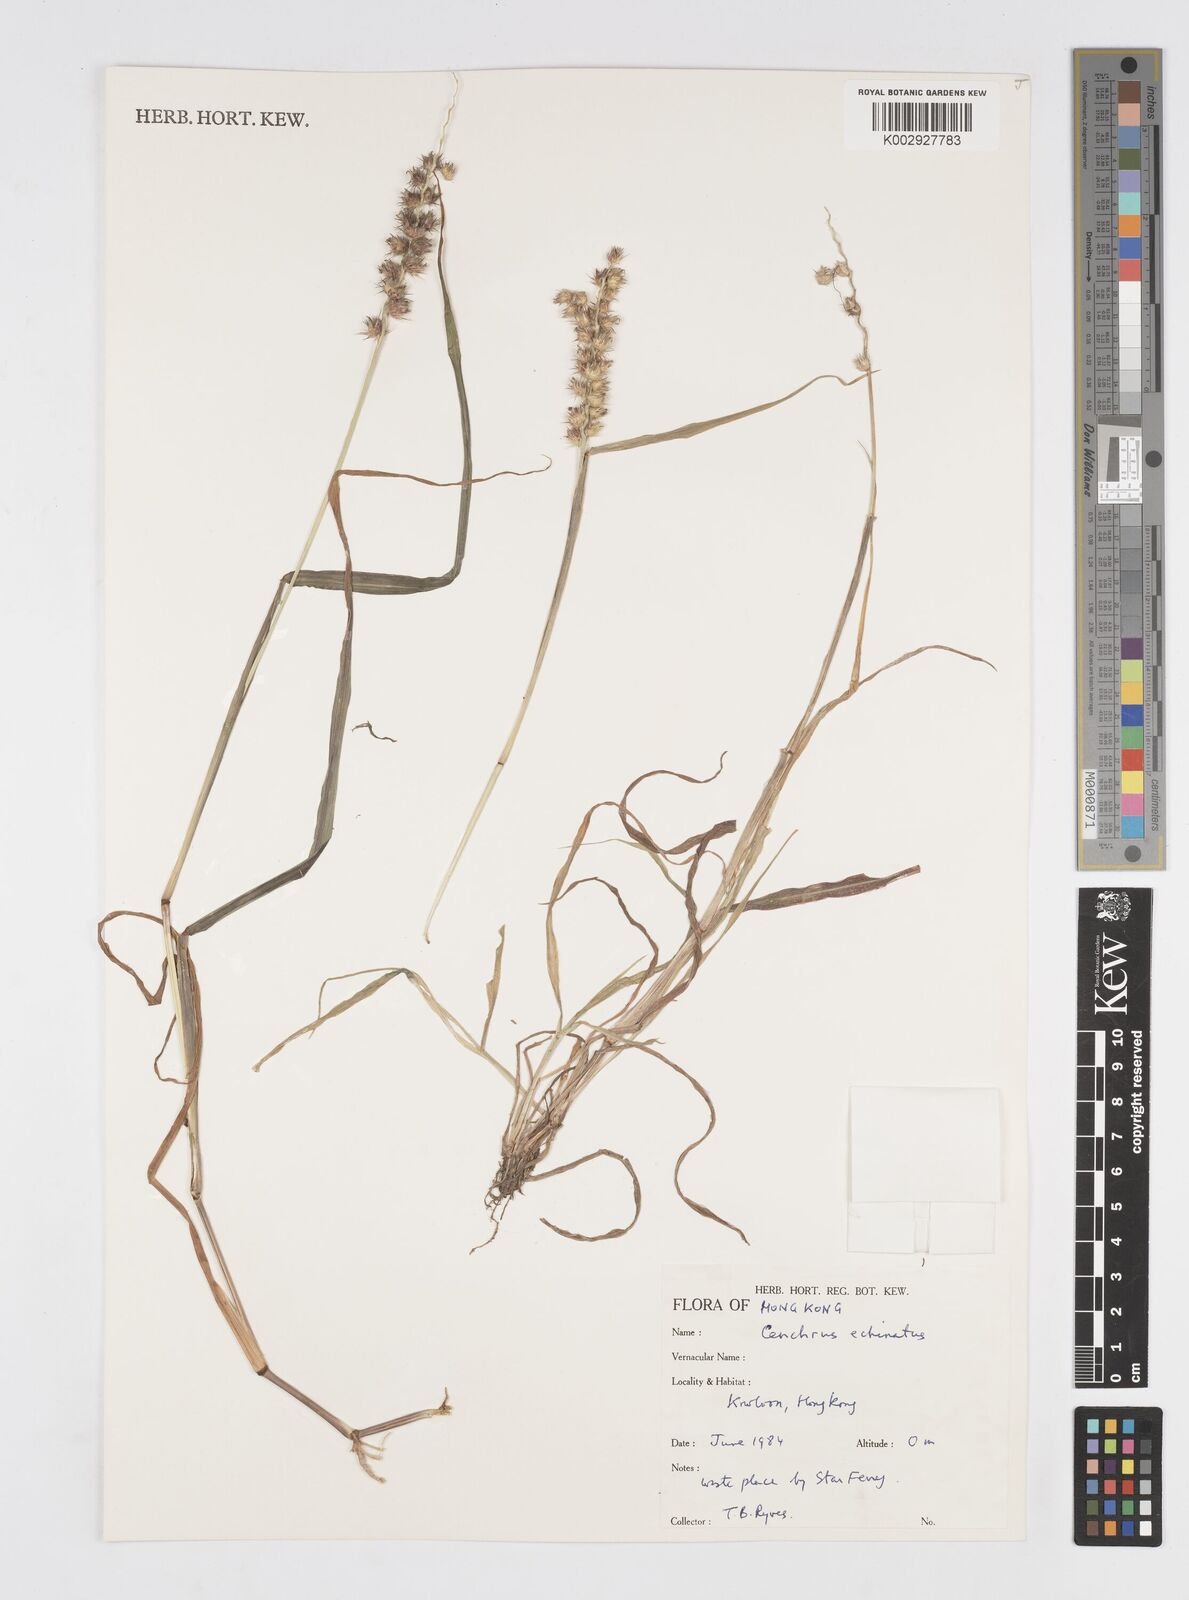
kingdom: Plantae
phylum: Tracheophyta
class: Liliopsida
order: Poales
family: Poaceae
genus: Cenchrus
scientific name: Cenchrus echinatus
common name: Southern sandbur
